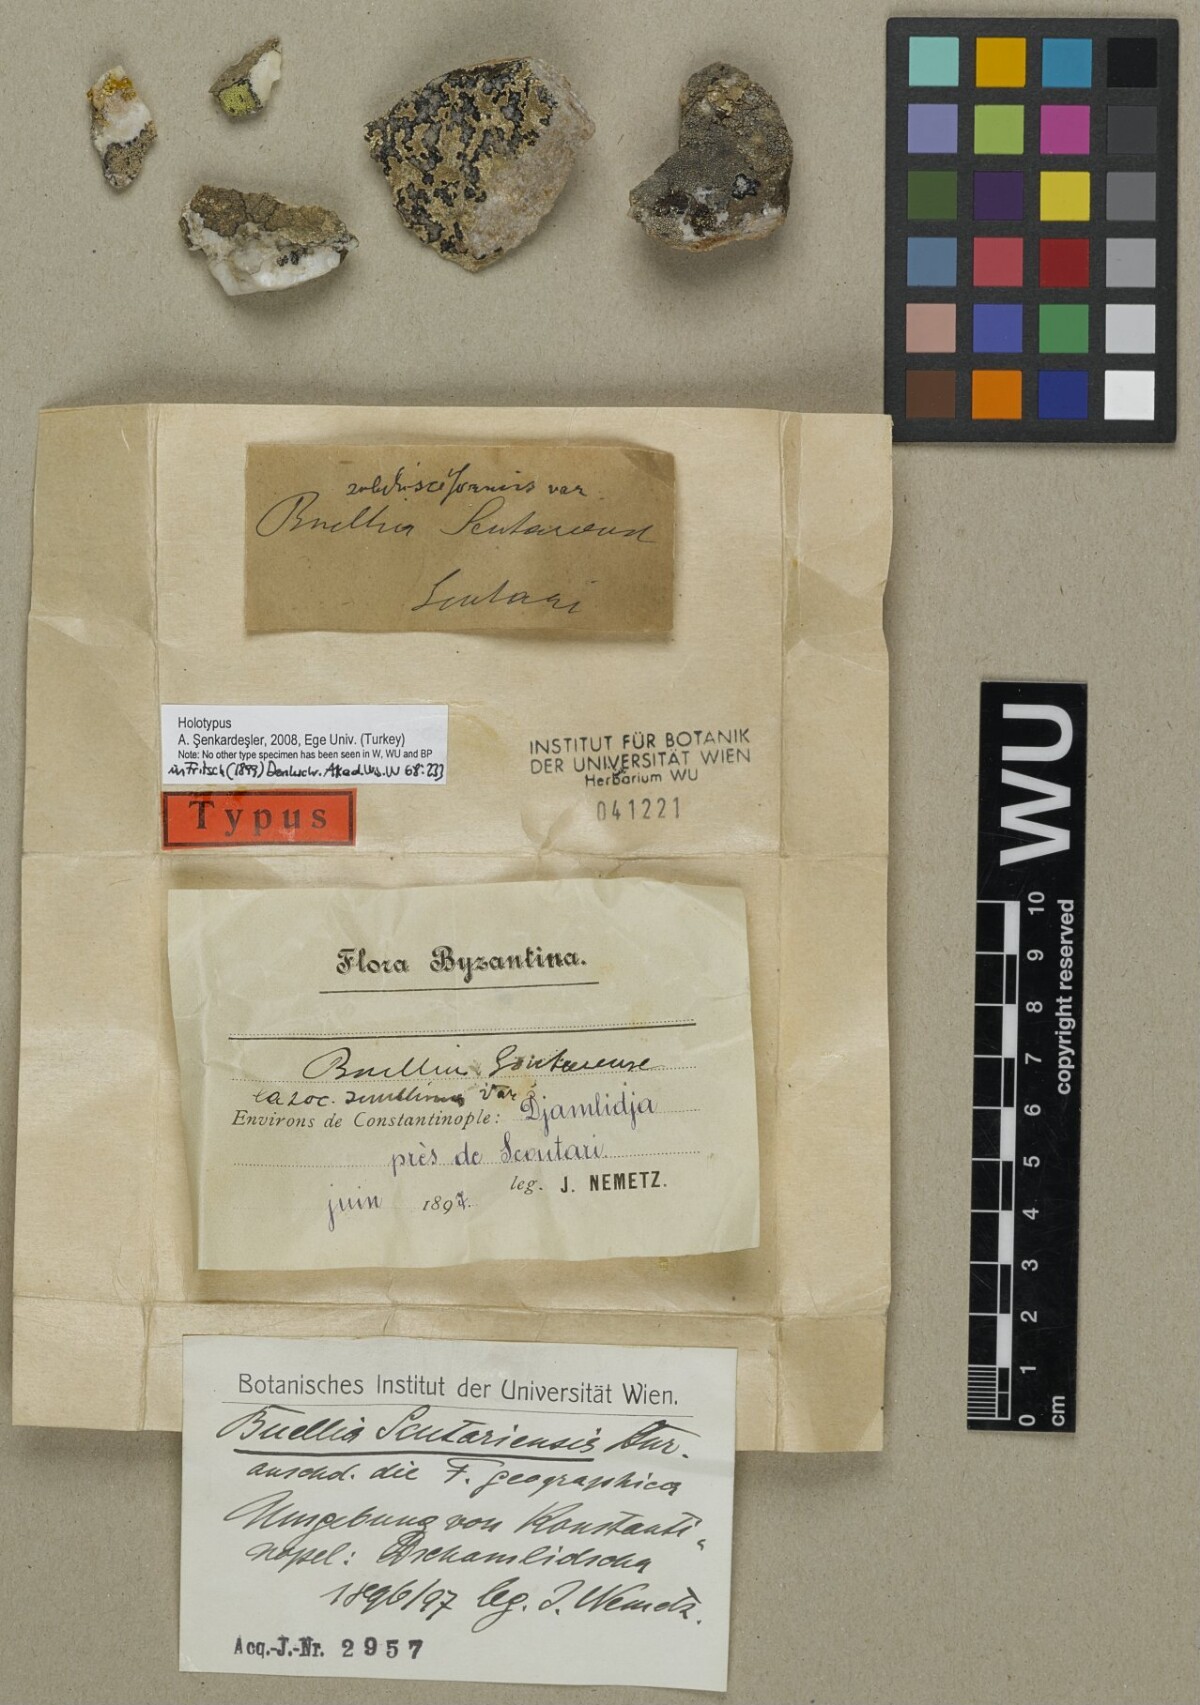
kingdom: Fungi
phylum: Ascomycota
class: Lecanoromycetes
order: Caliciales
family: Physciaceae
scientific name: Physciaceae
